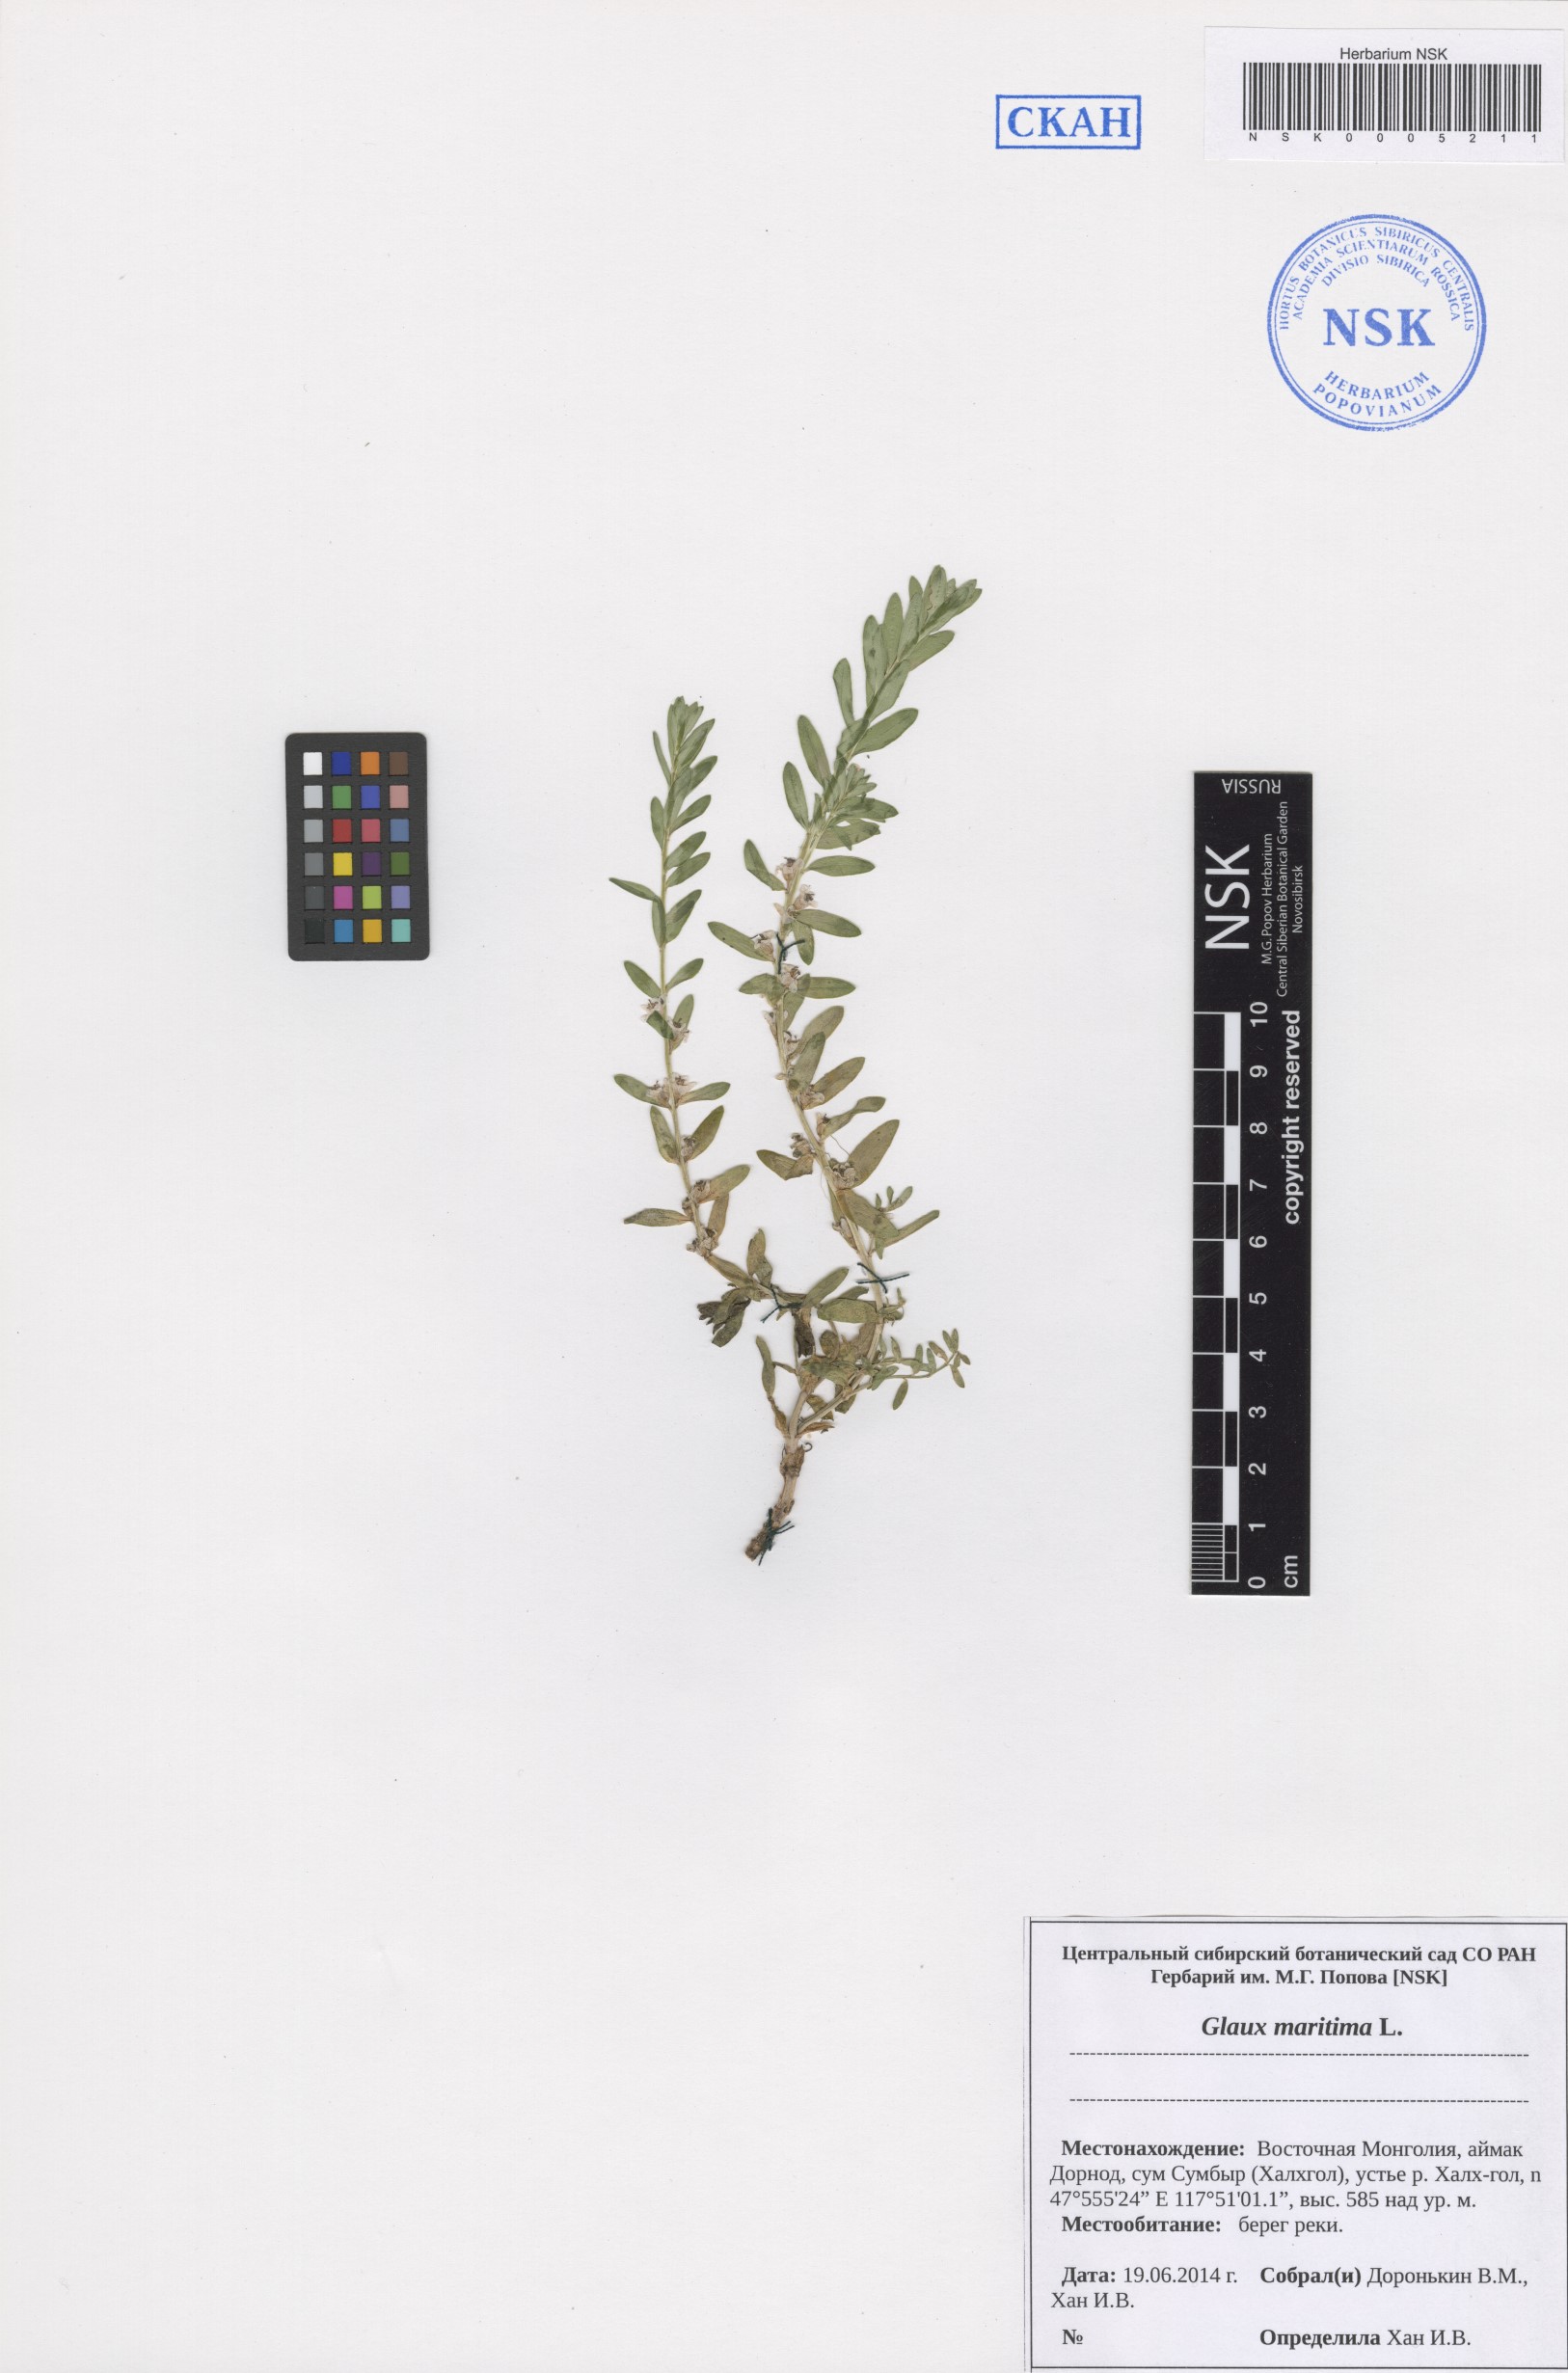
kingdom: Plantae
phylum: Tracheophyta
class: Magnoliopsida
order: Ericales
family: Primulaceae
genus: Lysimachia
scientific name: Lysimachia maritima
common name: Sea milkwort
